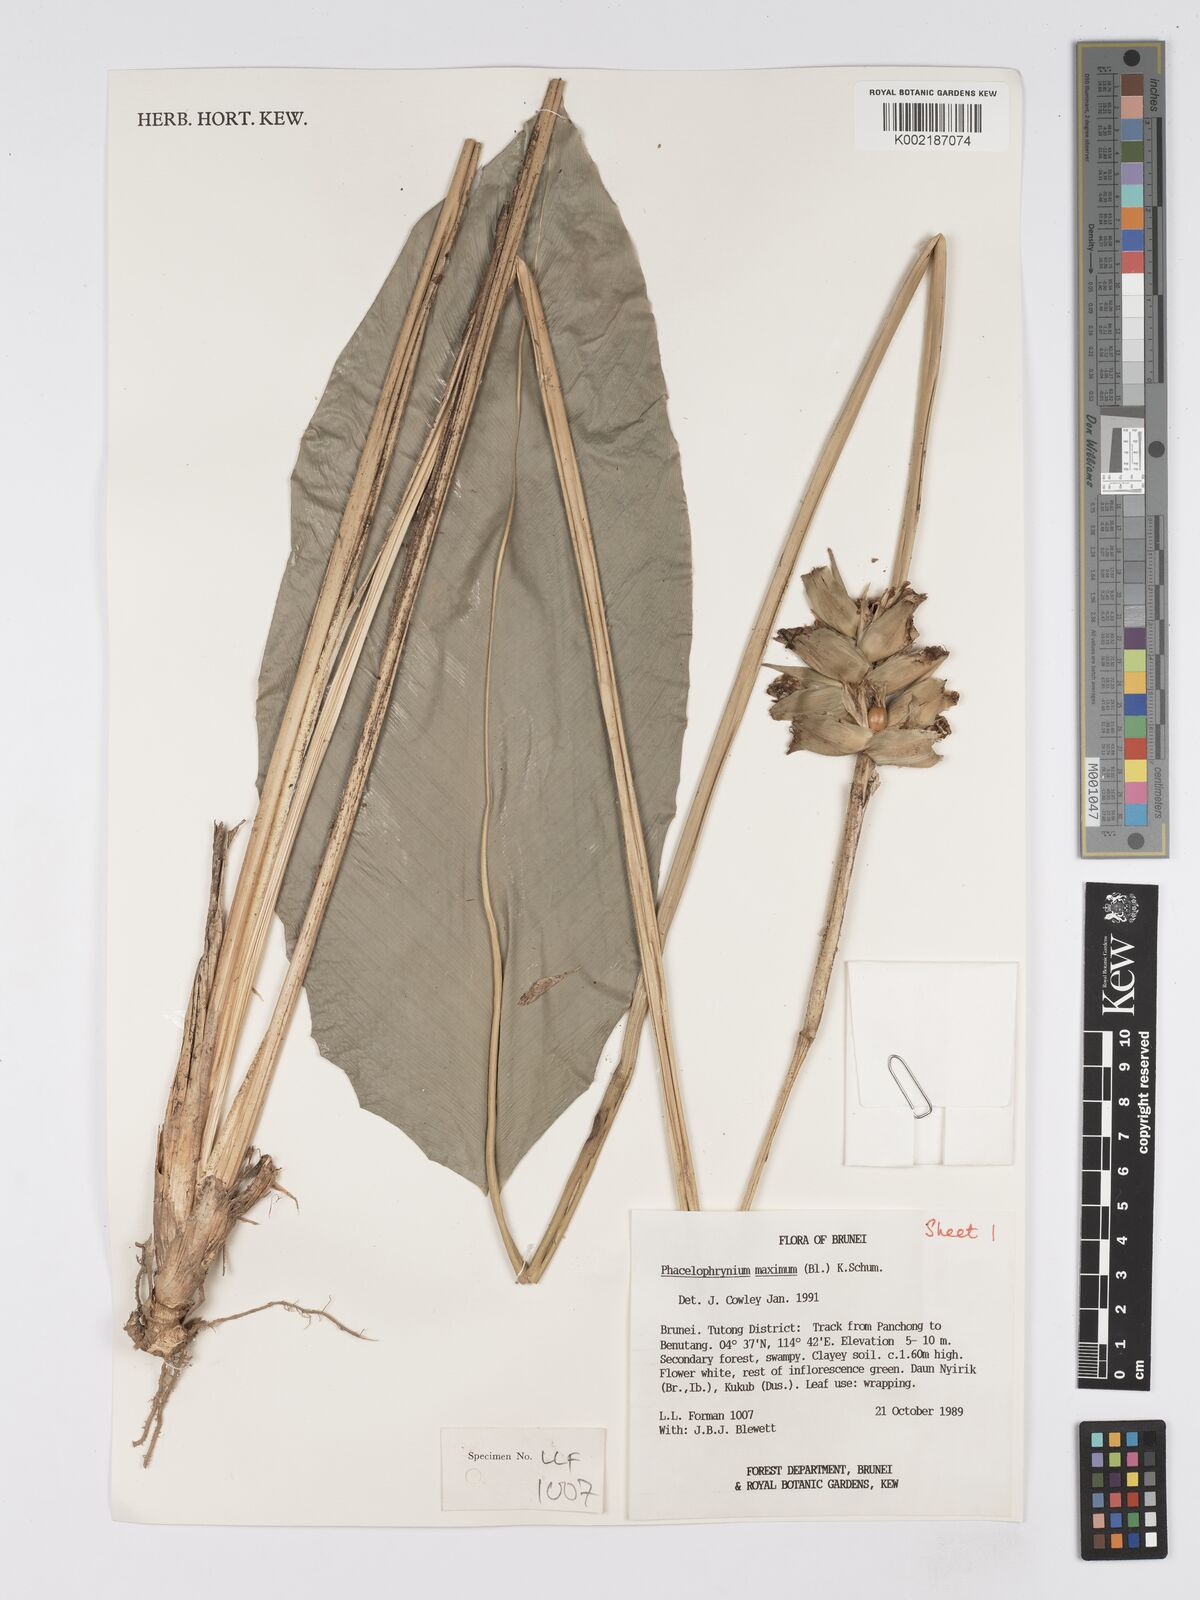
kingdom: Plantae
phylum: Tracheophyta
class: Liliopsida
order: Zingiberales
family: Marantaceae
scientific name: Marantaceae
